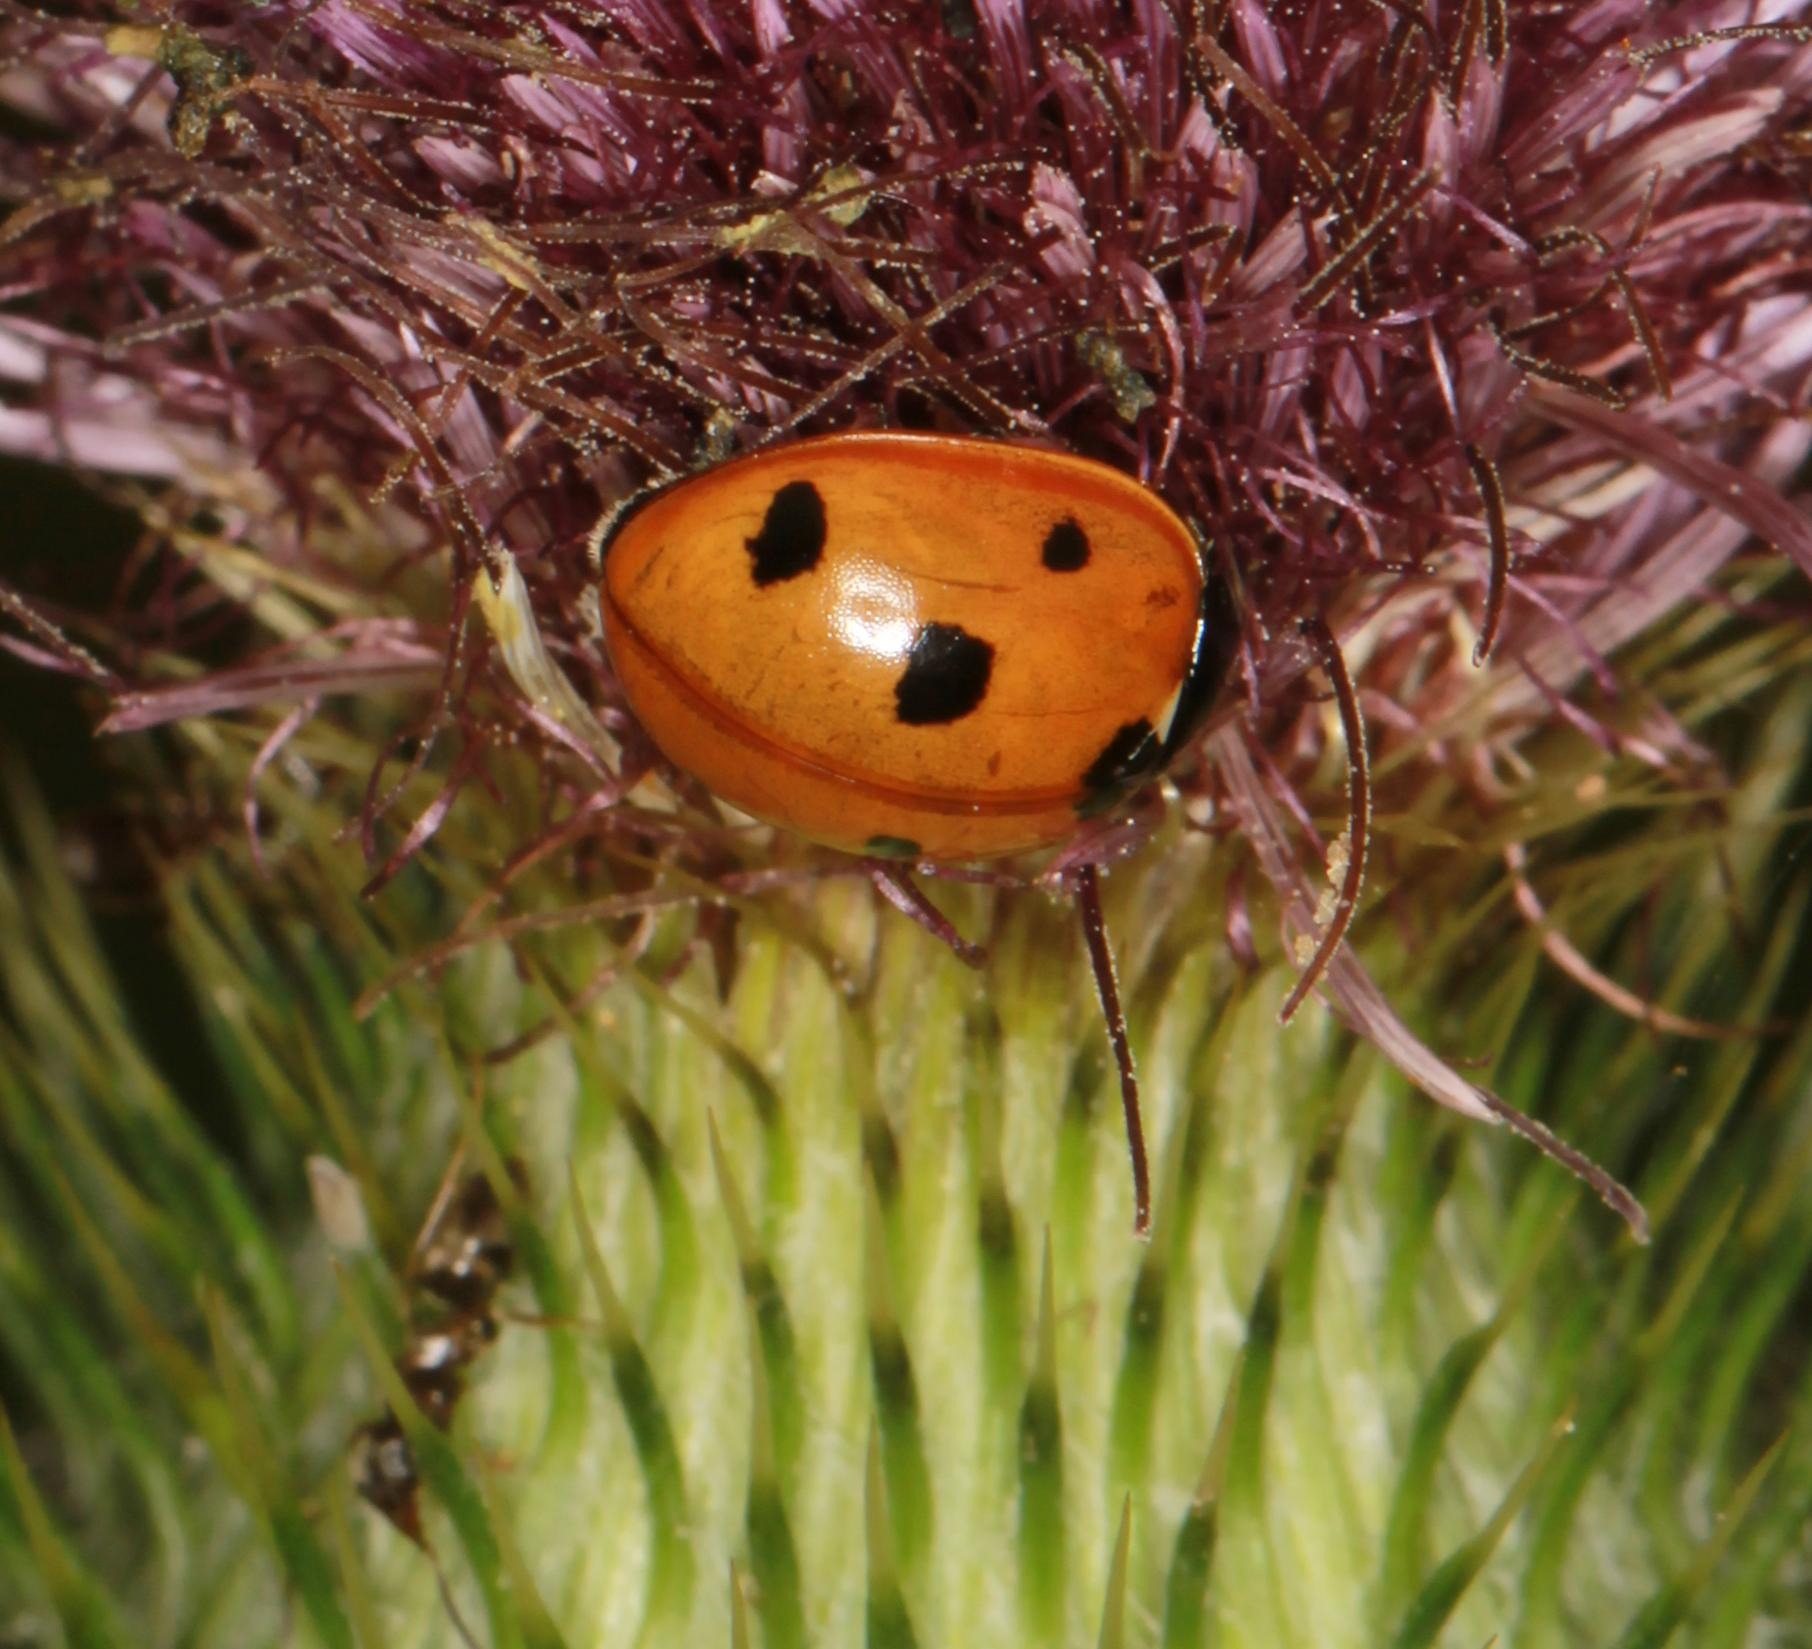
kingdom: Animalia
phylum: Arthropoda
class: Insecta
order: Coleoptera
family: Coccinellidae
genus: Coccinella
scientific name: Coccinella septempunctata
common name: Syvplettet mariehøne
